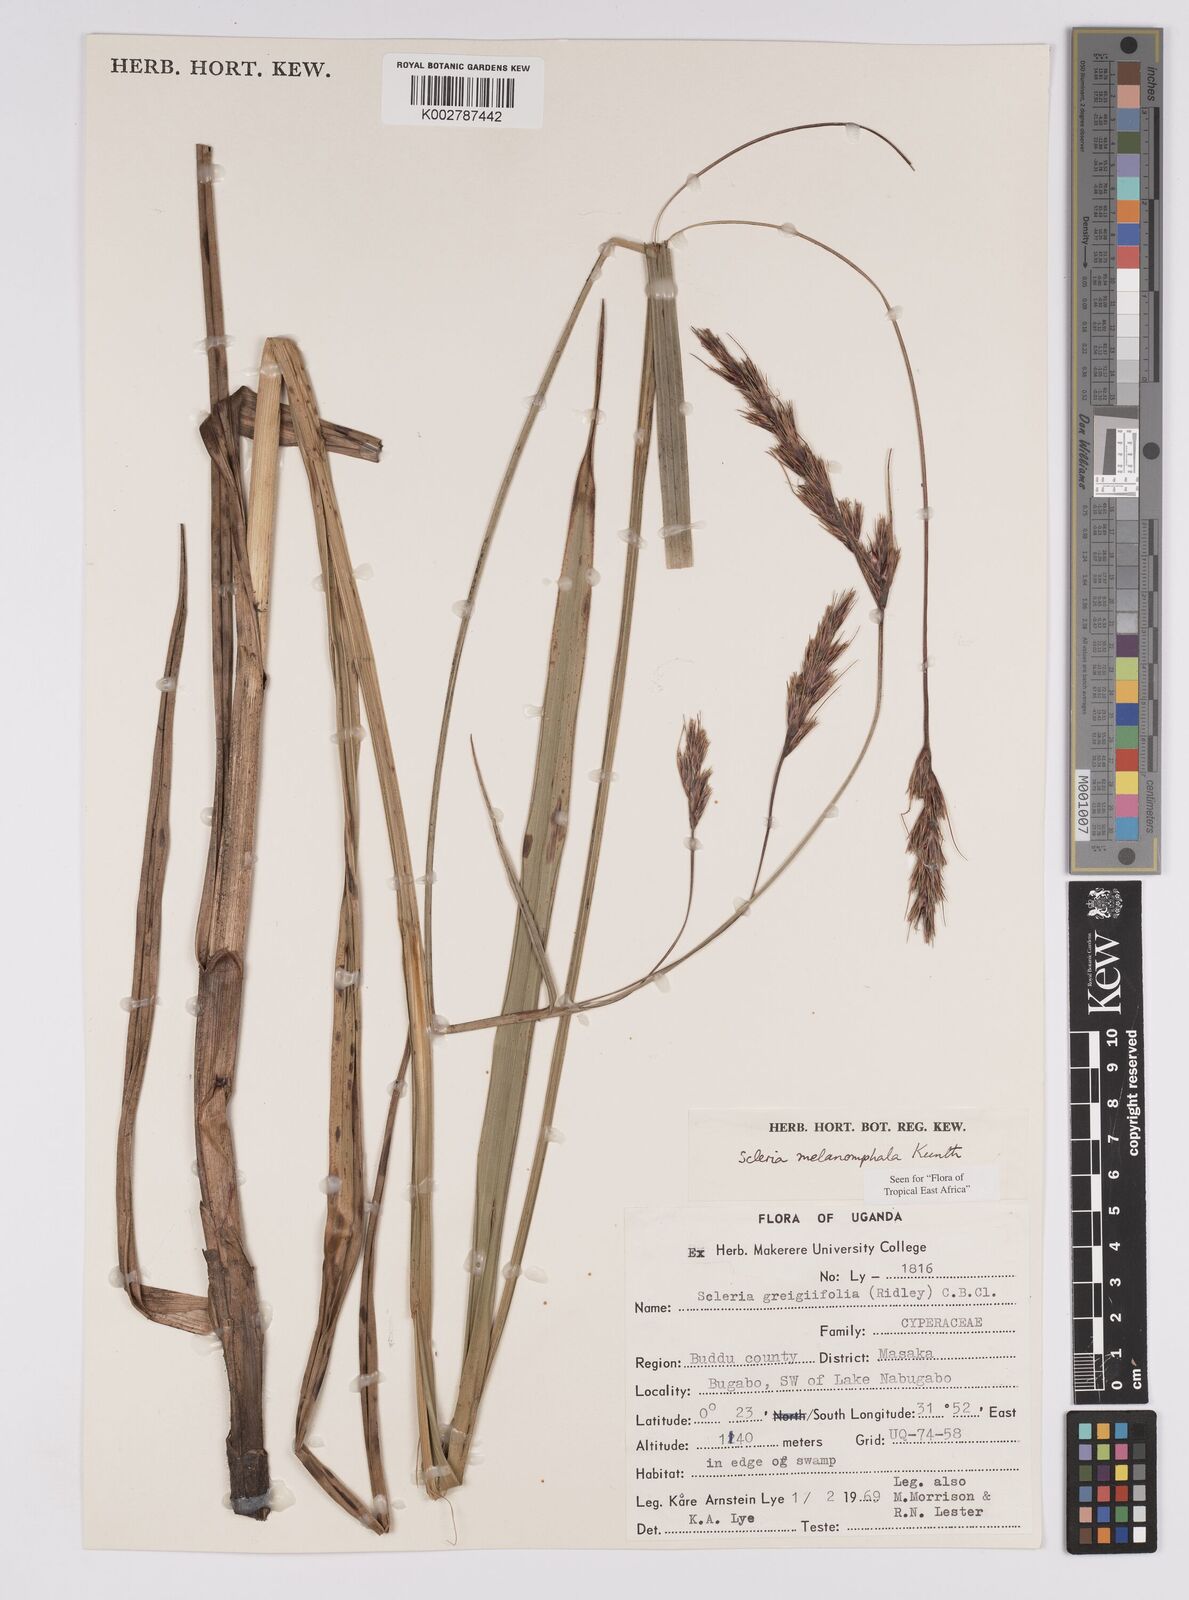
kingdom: Plantae
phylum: Tracheophyta
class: Liliopsida
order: Poales
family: Cyperaceae
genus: Scleria
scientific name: Scleria melanomphala
